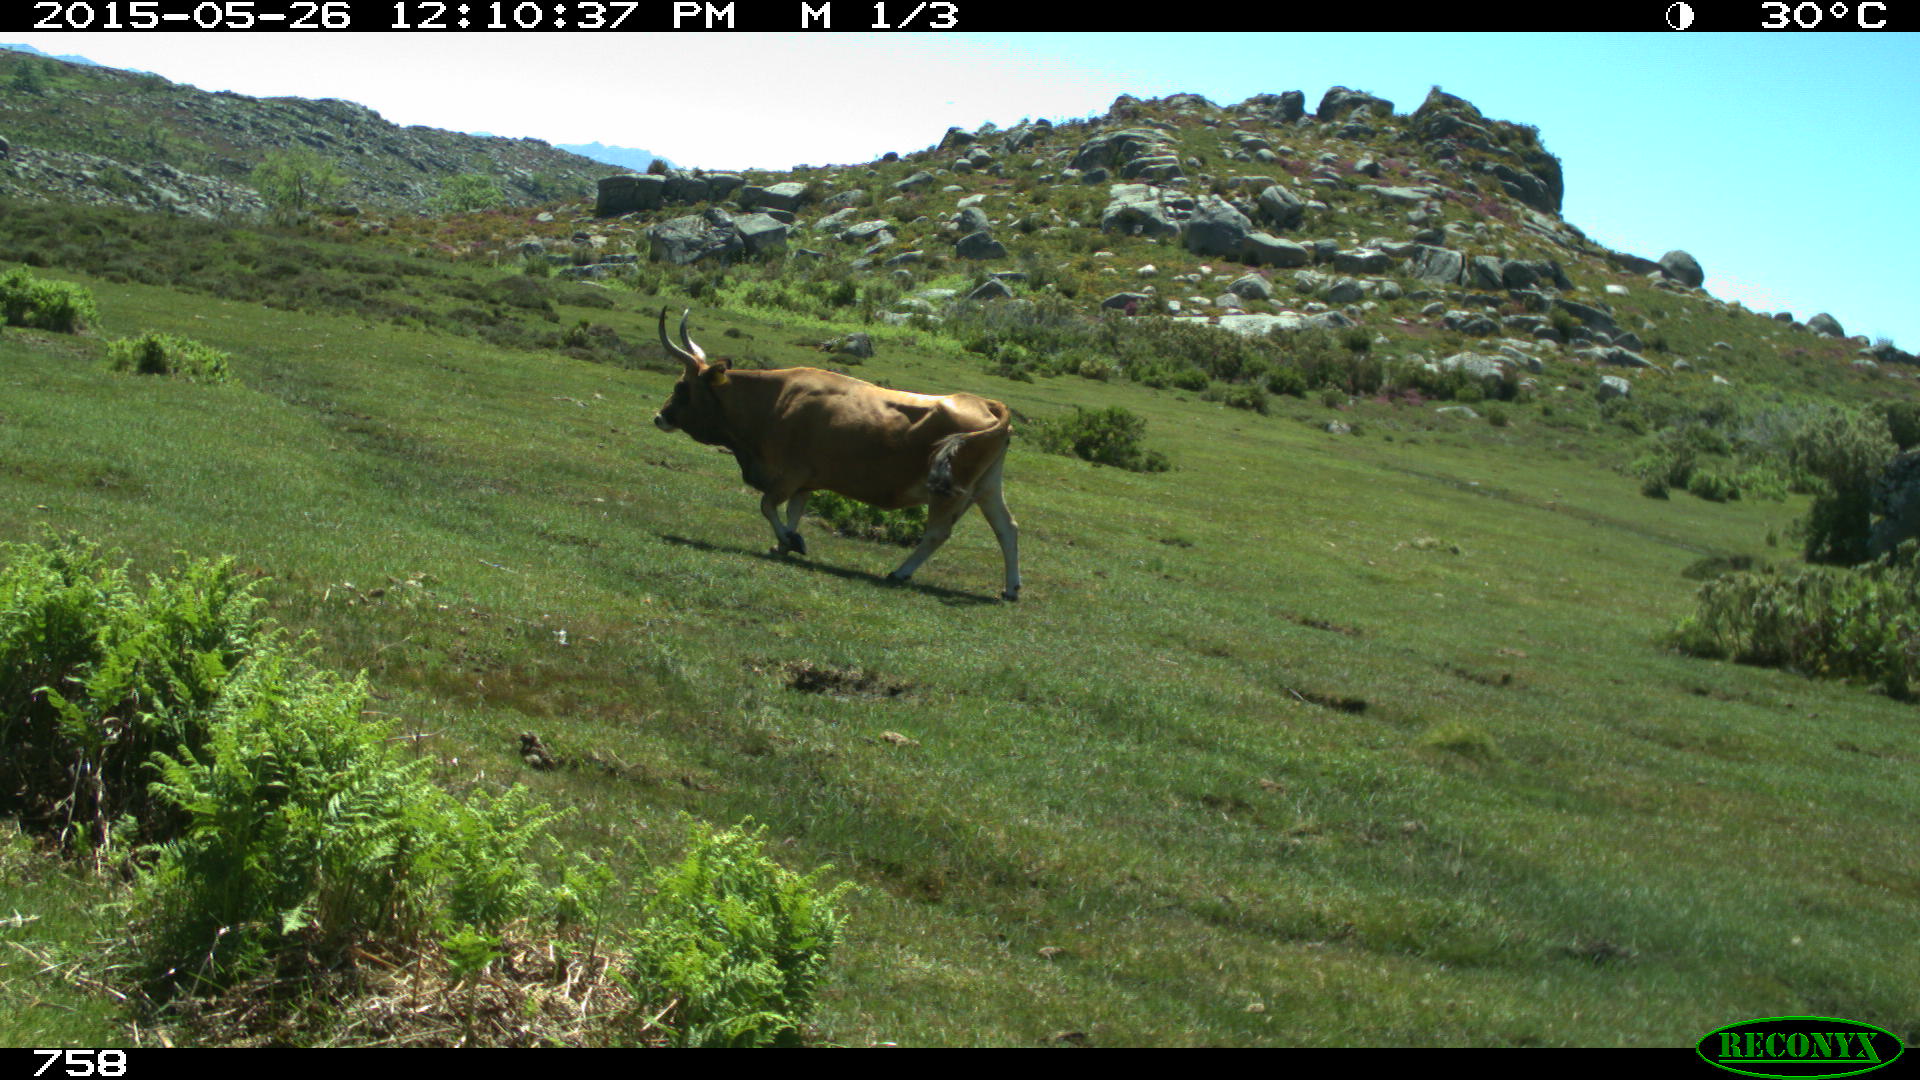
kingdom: Animalia
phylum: Chordata
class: Mammalia
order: Artiodactyla
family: Bovidae
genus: Bos
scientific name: Bos taurus
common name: Domesticated cattle
